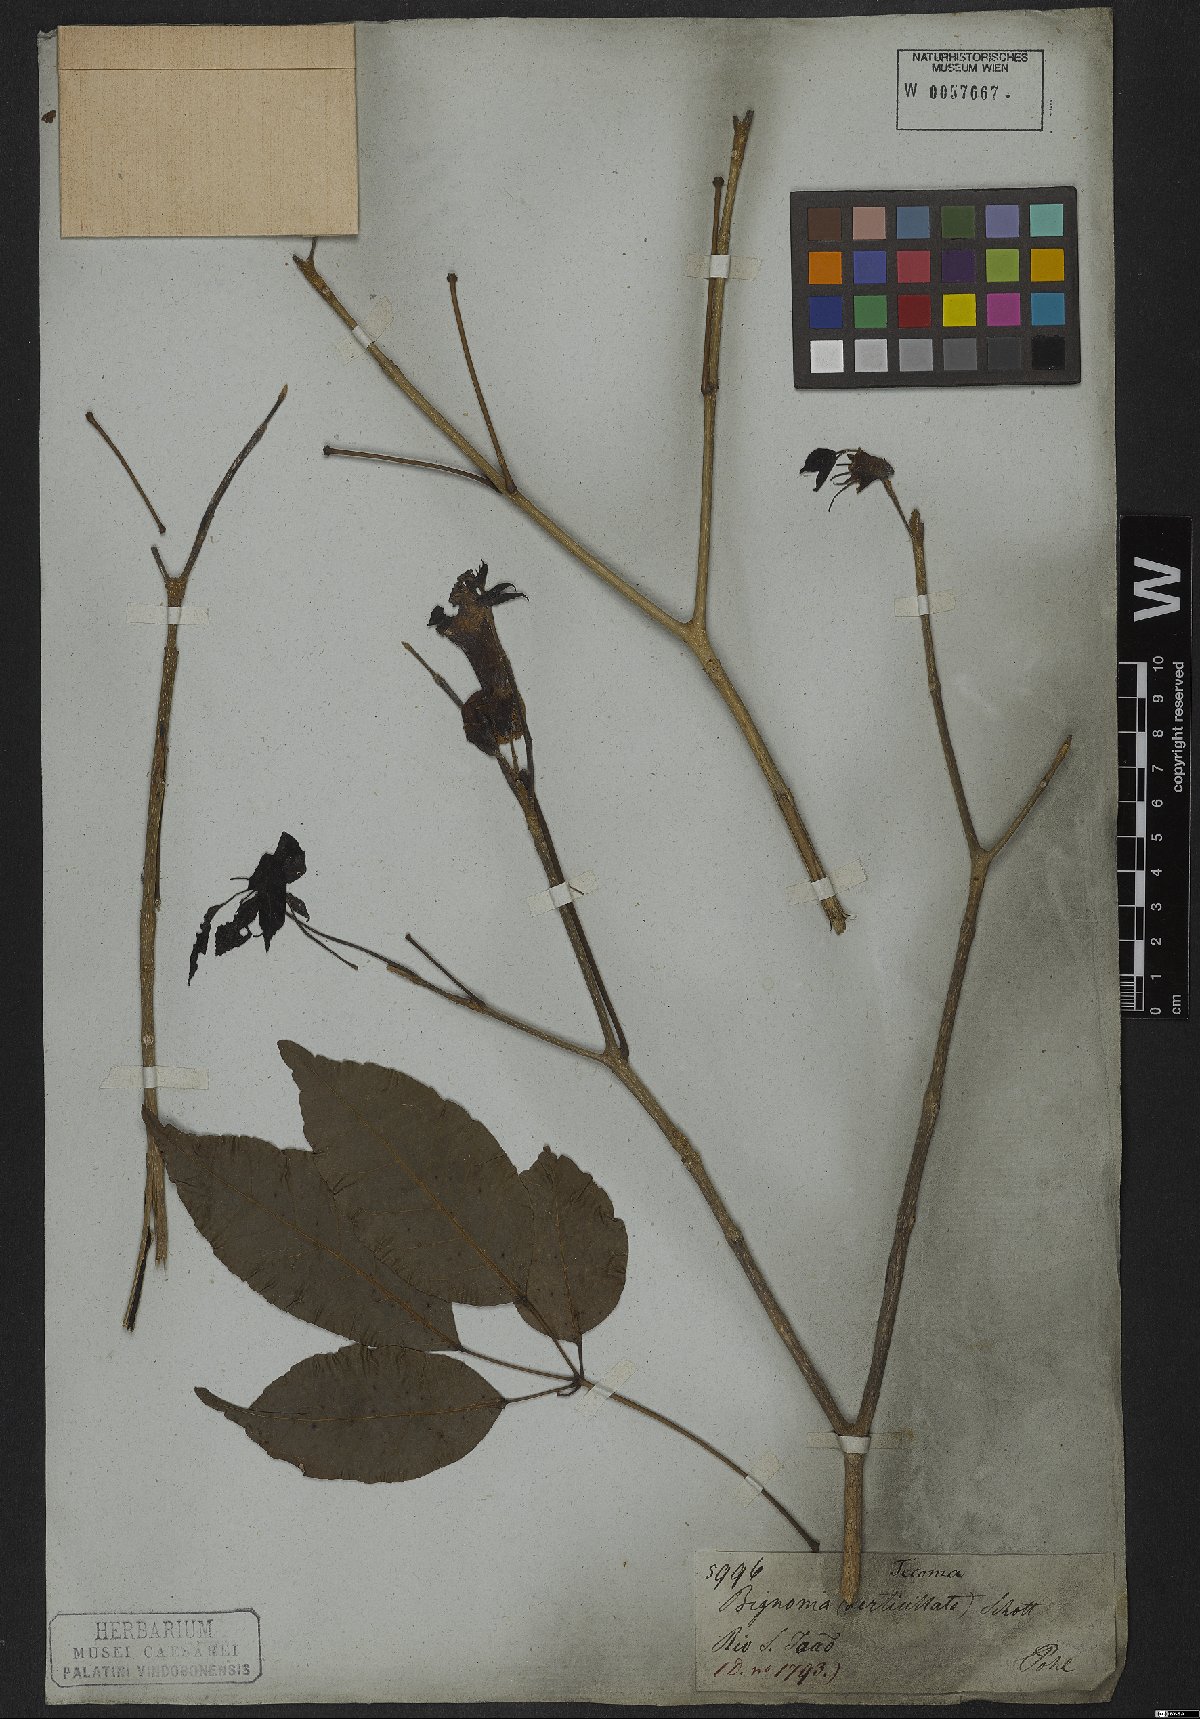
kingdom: Plantae
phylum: Tracheophyta
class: Magnoliopsida
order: Lamiales
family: Bignoniaceae
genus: Handroanthus
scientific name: Handroanthus serratifolius
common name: Yellow ipe
